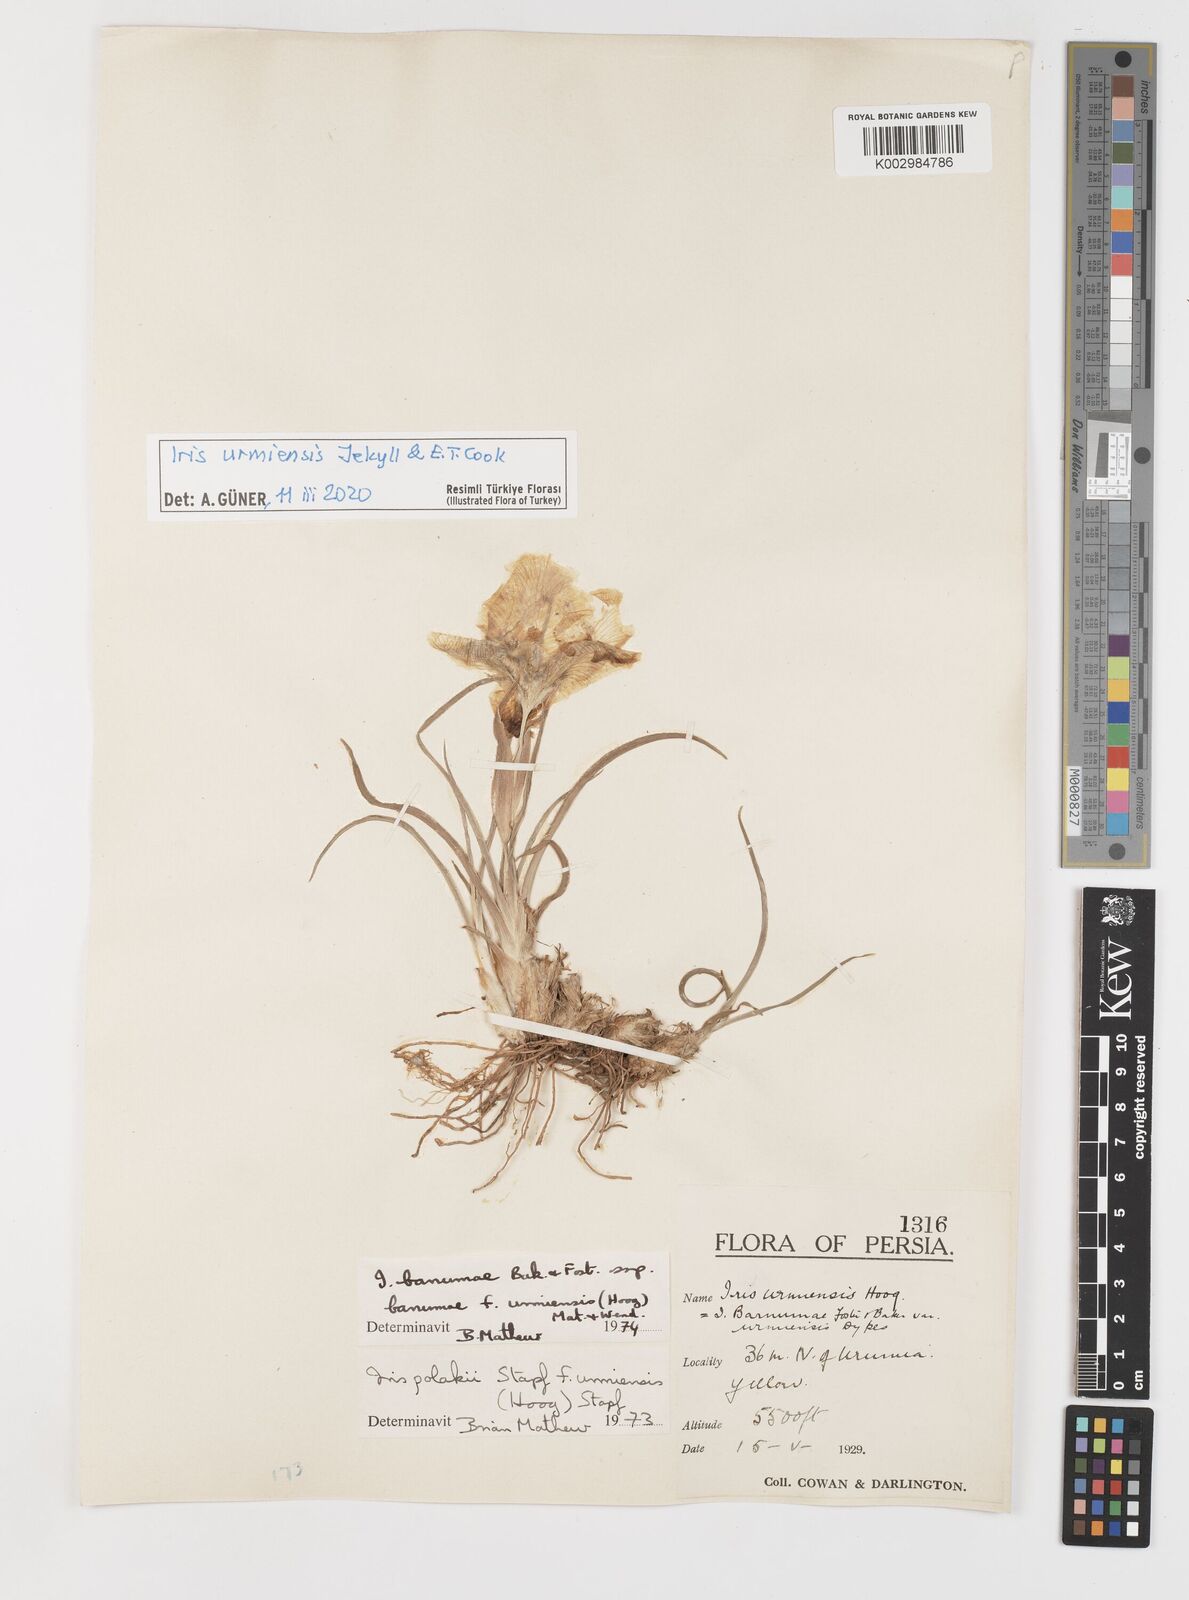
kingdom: Plantae
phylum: Tracheophyta
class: Liliopsida
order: Asparagales
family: Iridaceae
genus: Iris
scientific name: Iris urmiensis
